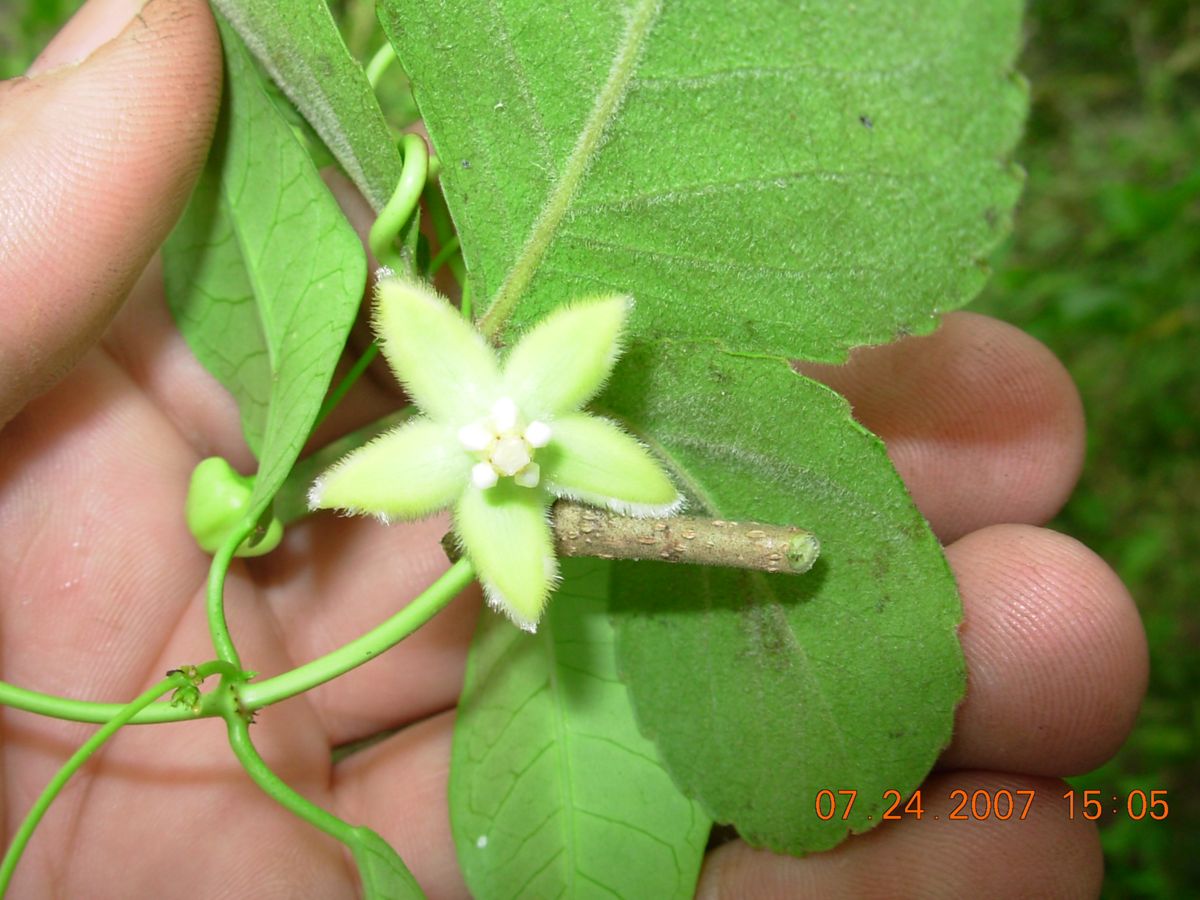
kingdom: Plantae
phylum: Tracheophyta
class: Magnoliopsida
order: Gentianales
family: Apocynaceae
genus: Vailia
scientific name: Vailia anomala
